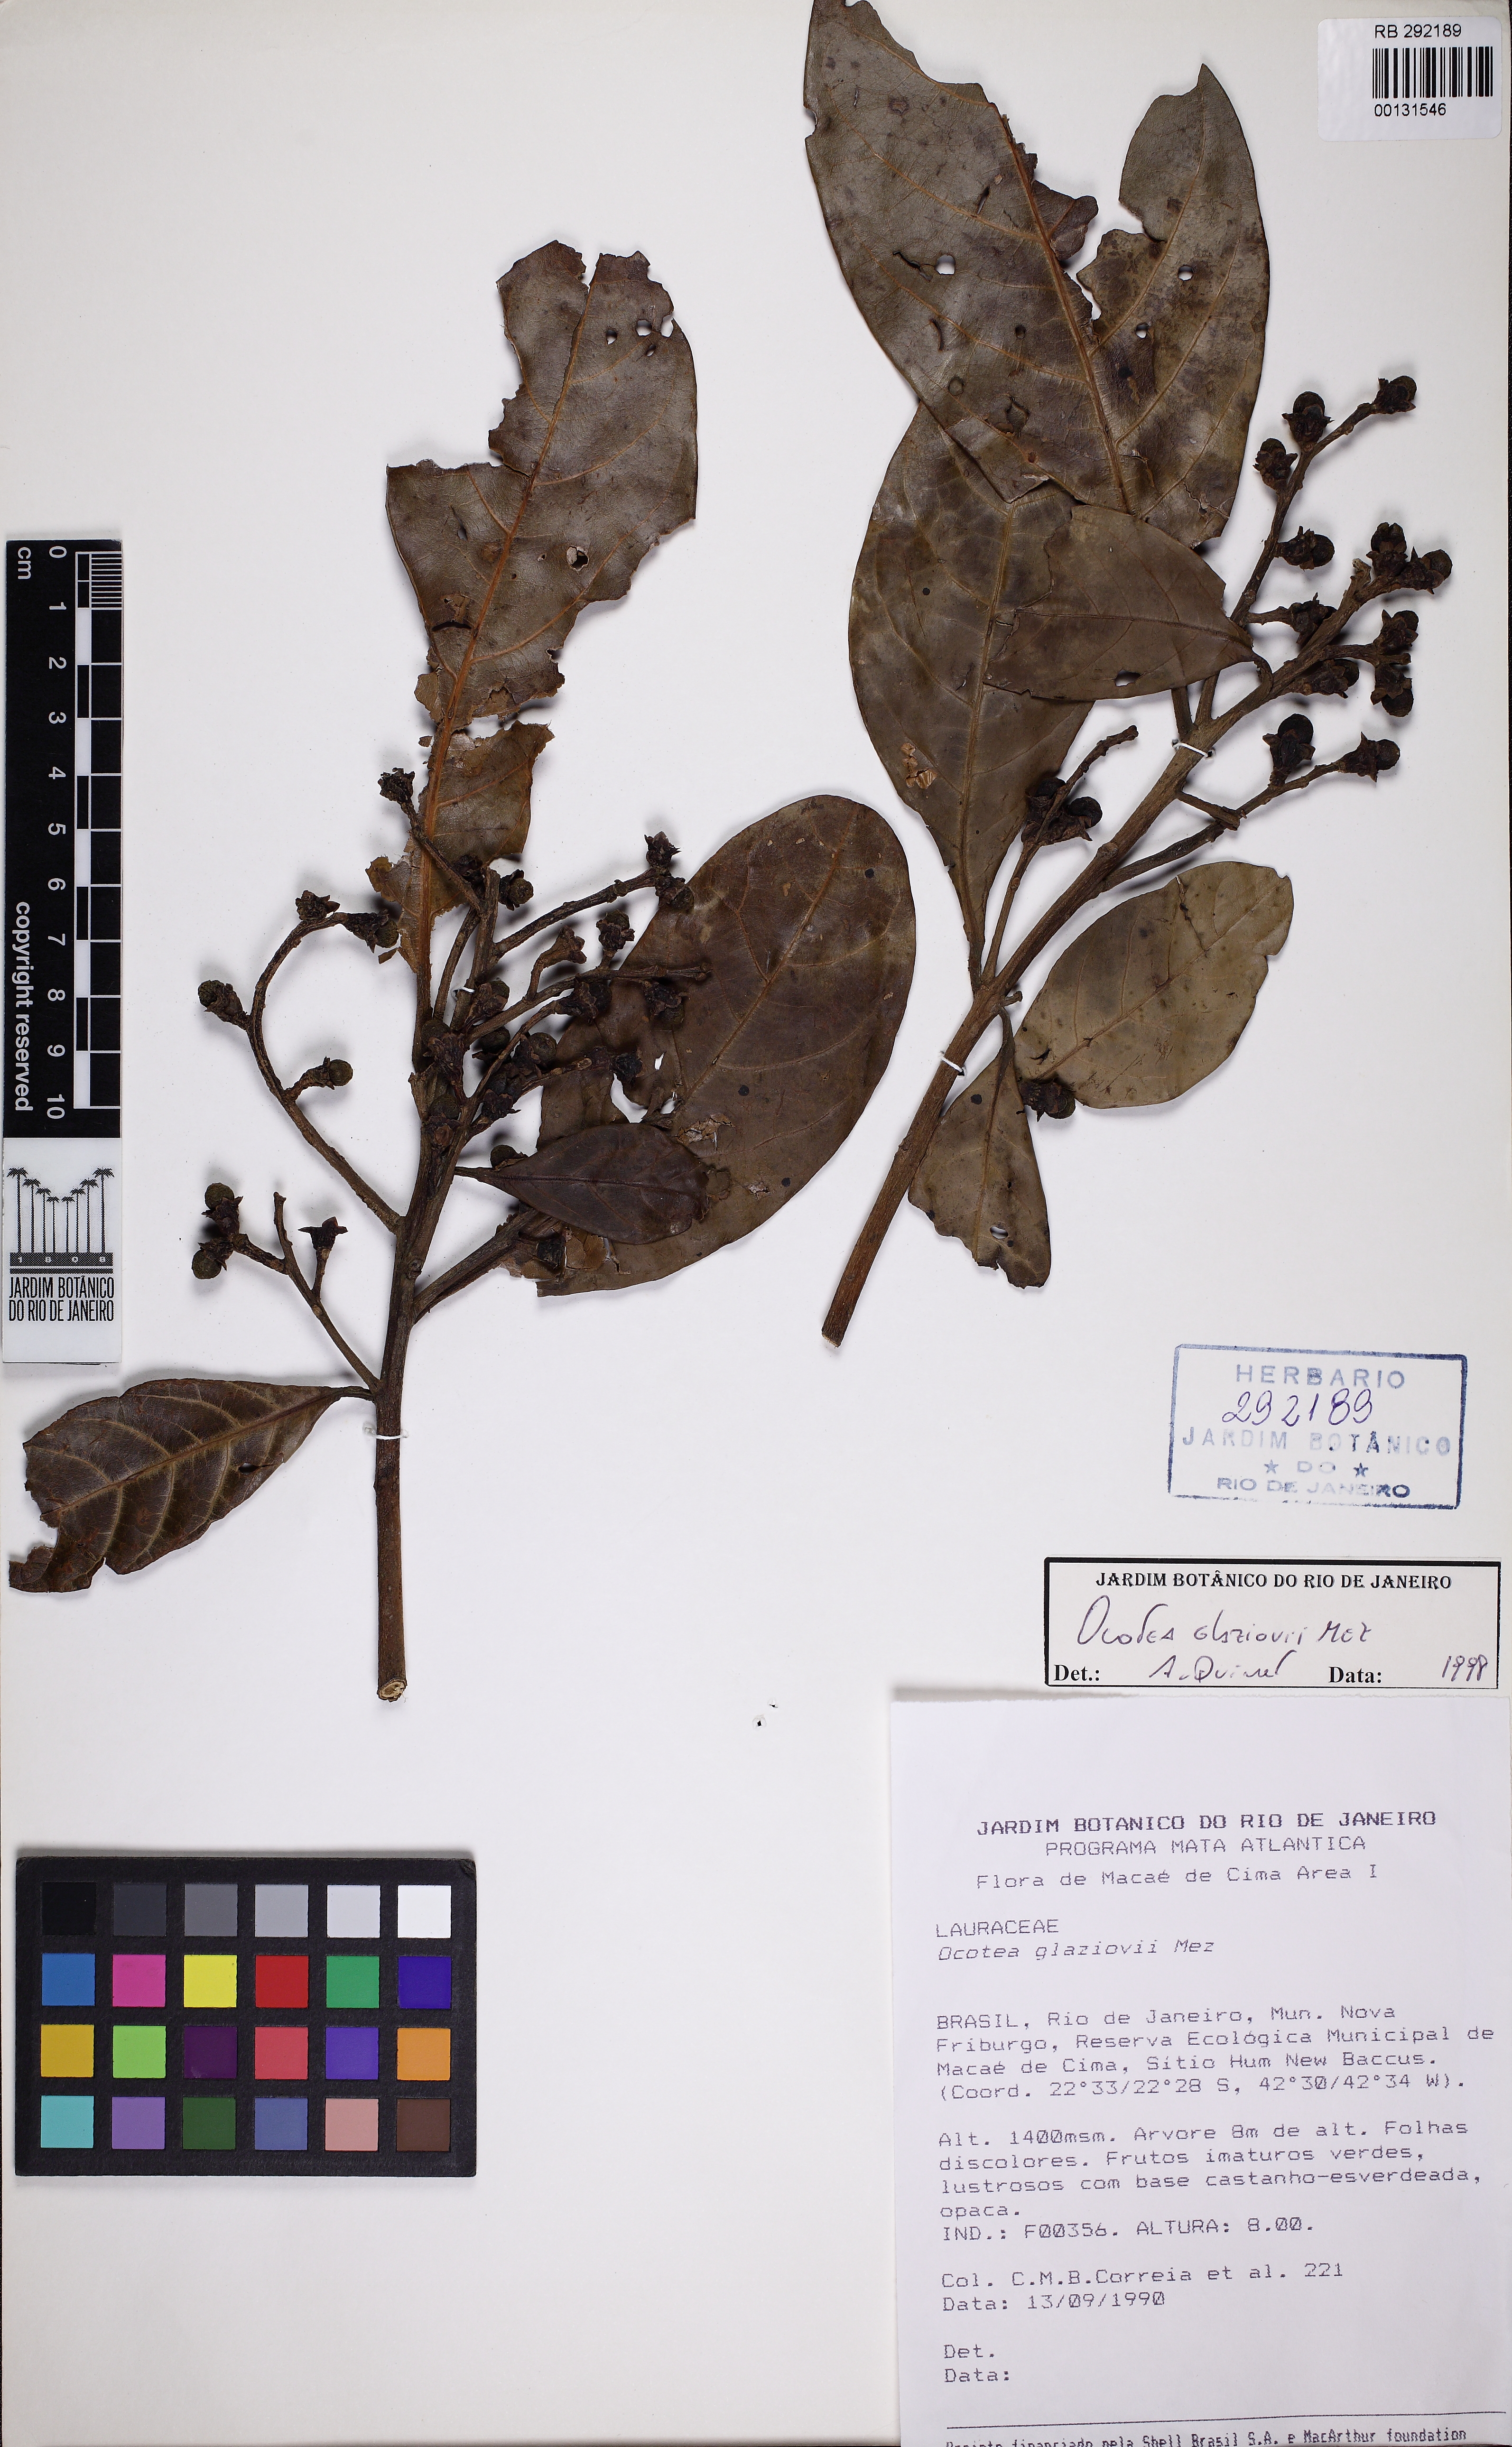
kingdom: Plantae
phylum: Tracheophyta
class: Magnoliopsida
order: Laurales
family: Lauraceae
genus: Ocotea
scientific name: Ocotea glaziovii
